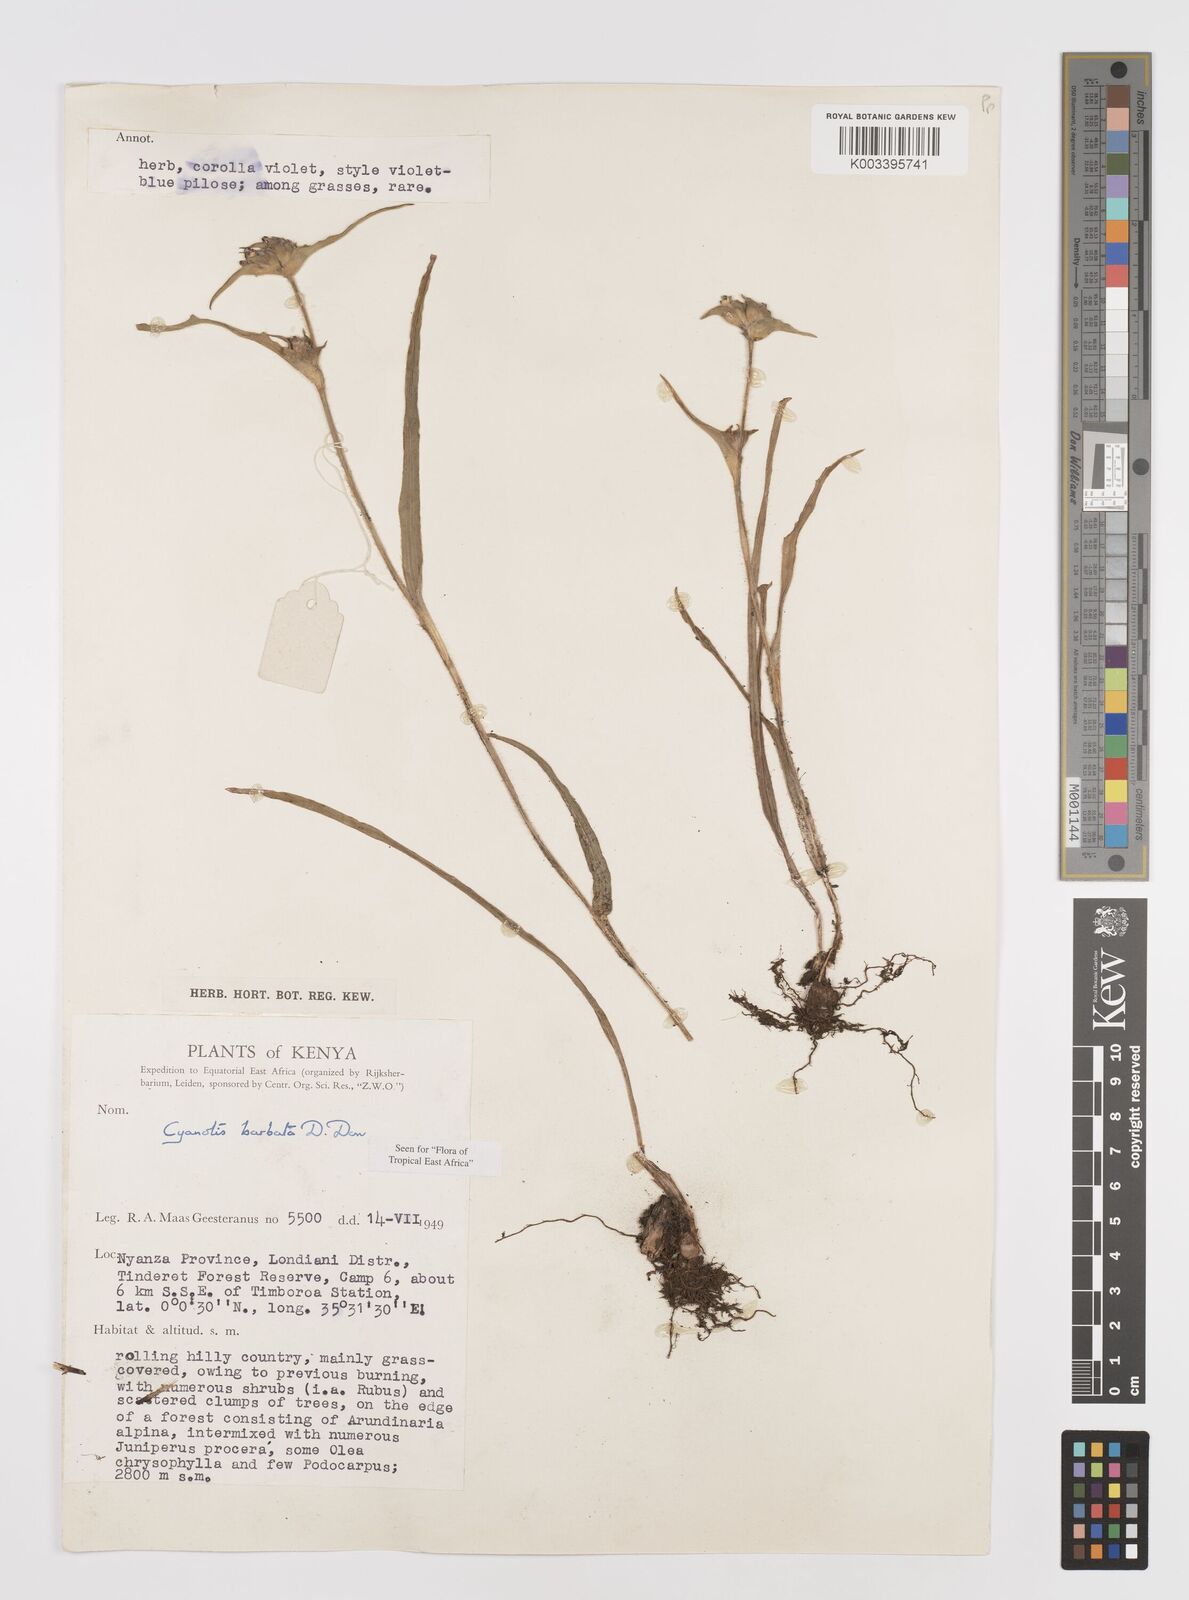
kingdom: Plantae
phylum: Tracheophyta
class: Liliopsida
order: Commelinales
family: Commelinaceae
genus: Cyanotis
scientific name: Cyanotis vaga
